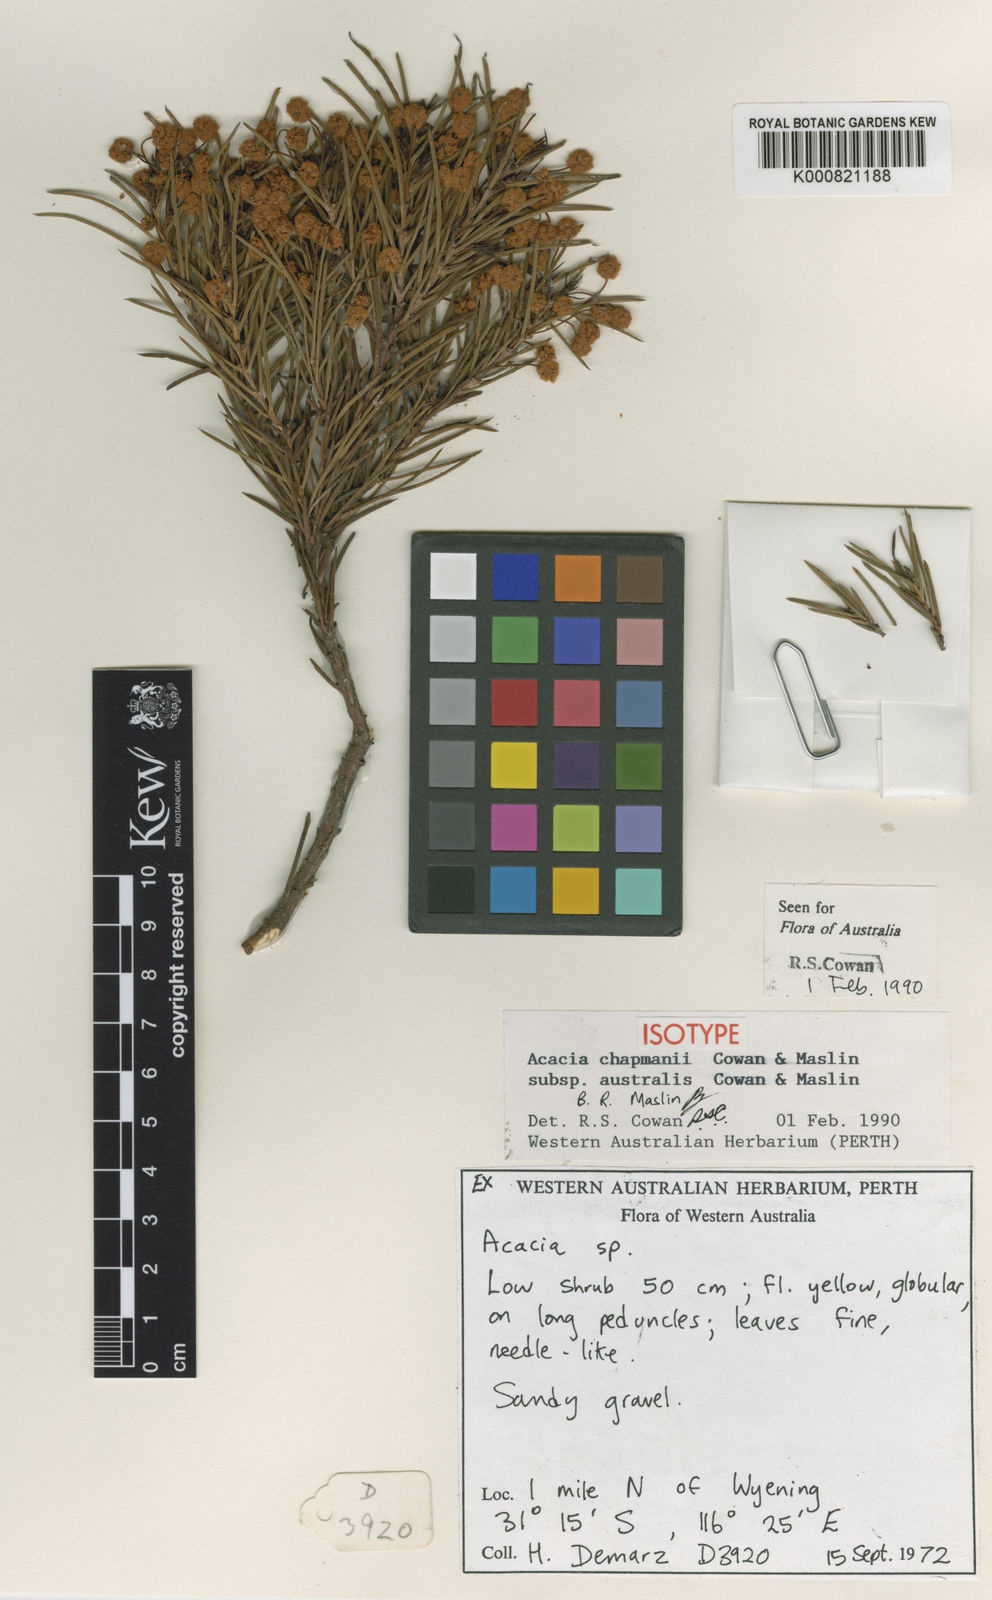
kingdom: Plantae
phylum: Tracheophyta
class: Magnoliopsida
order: Fabales
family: Fabaceae
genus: Acacia
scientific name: Acacia chapmanii
